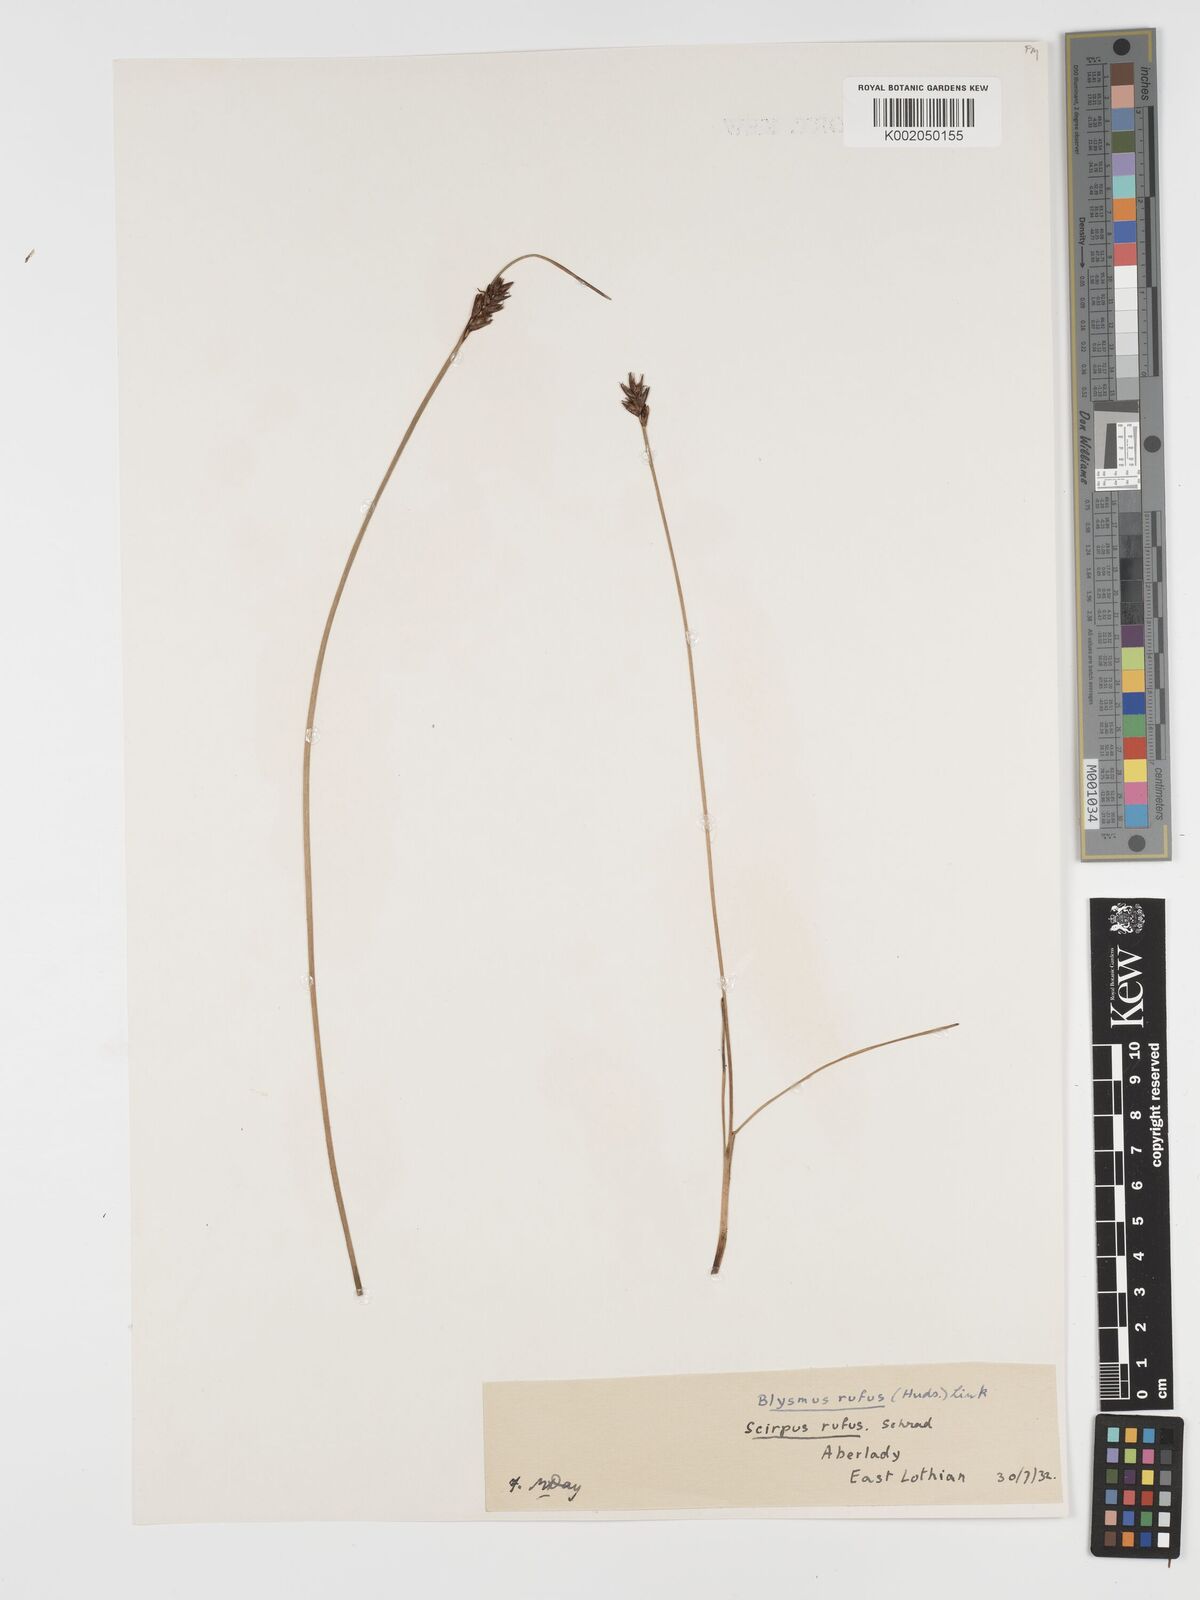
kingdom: Plantae
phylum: Tracheophyta
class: Liliopsida
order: Poales
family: Cyperaceae
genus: Blysmus
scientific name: Blysmus rufus
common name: Saltmarsh flat-sedge
